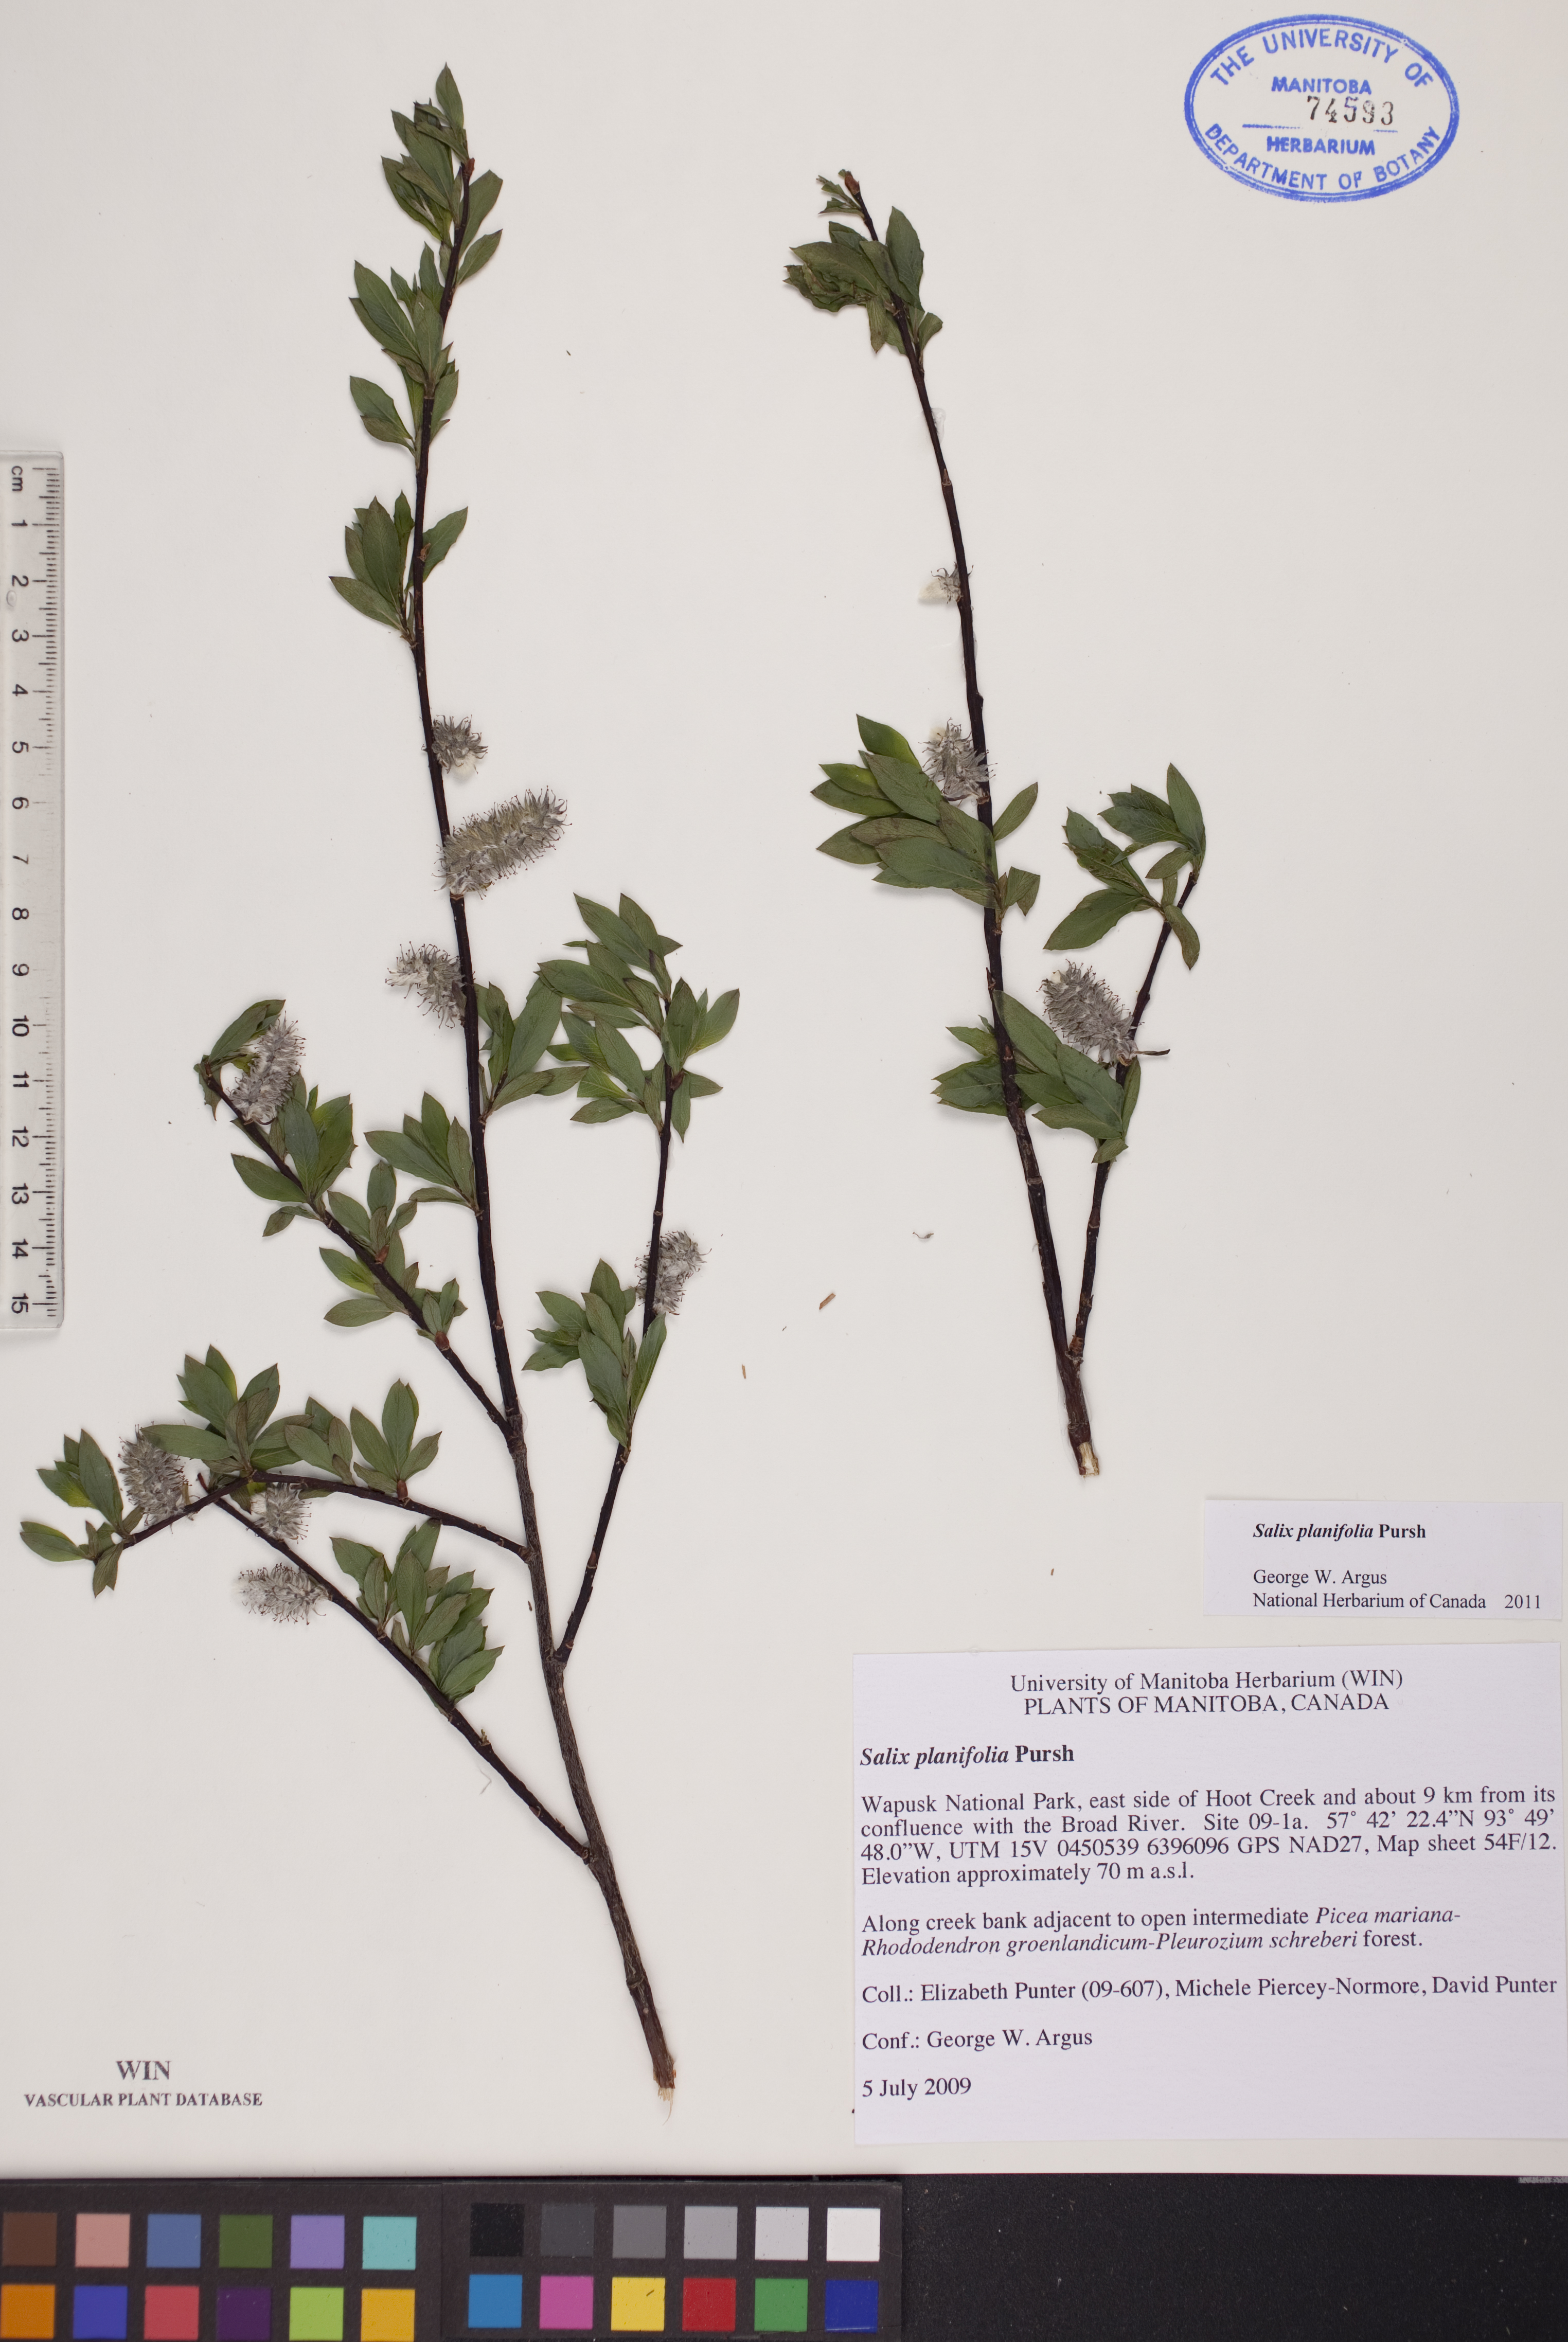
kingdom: Plantae
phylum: Tracheophyta
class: Magnoliopsida
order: Malpighiales
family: Salicaceae
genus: Salix
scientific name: Salix planifolia
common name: Mountain willow
